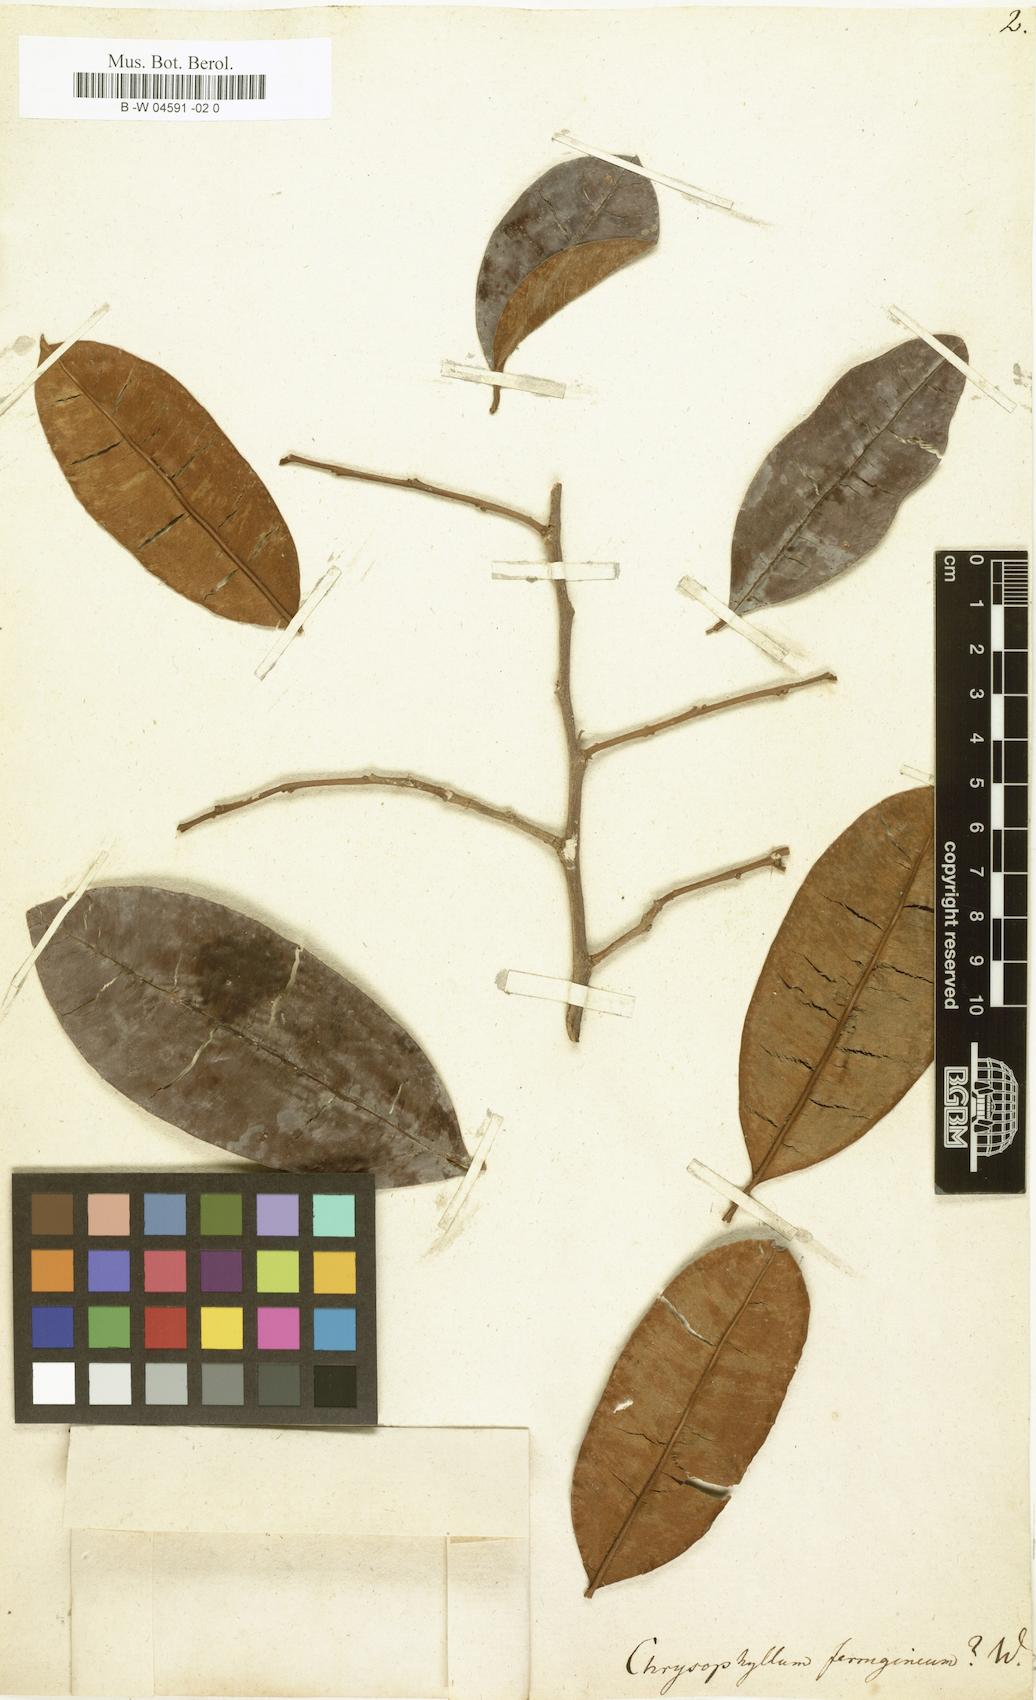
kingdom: Plantae
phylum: Tracheophyta
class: Magnoliopsida
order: Ericales
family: Sapotaceae
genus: Chrysophyllum
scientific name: Chrysophyllum
